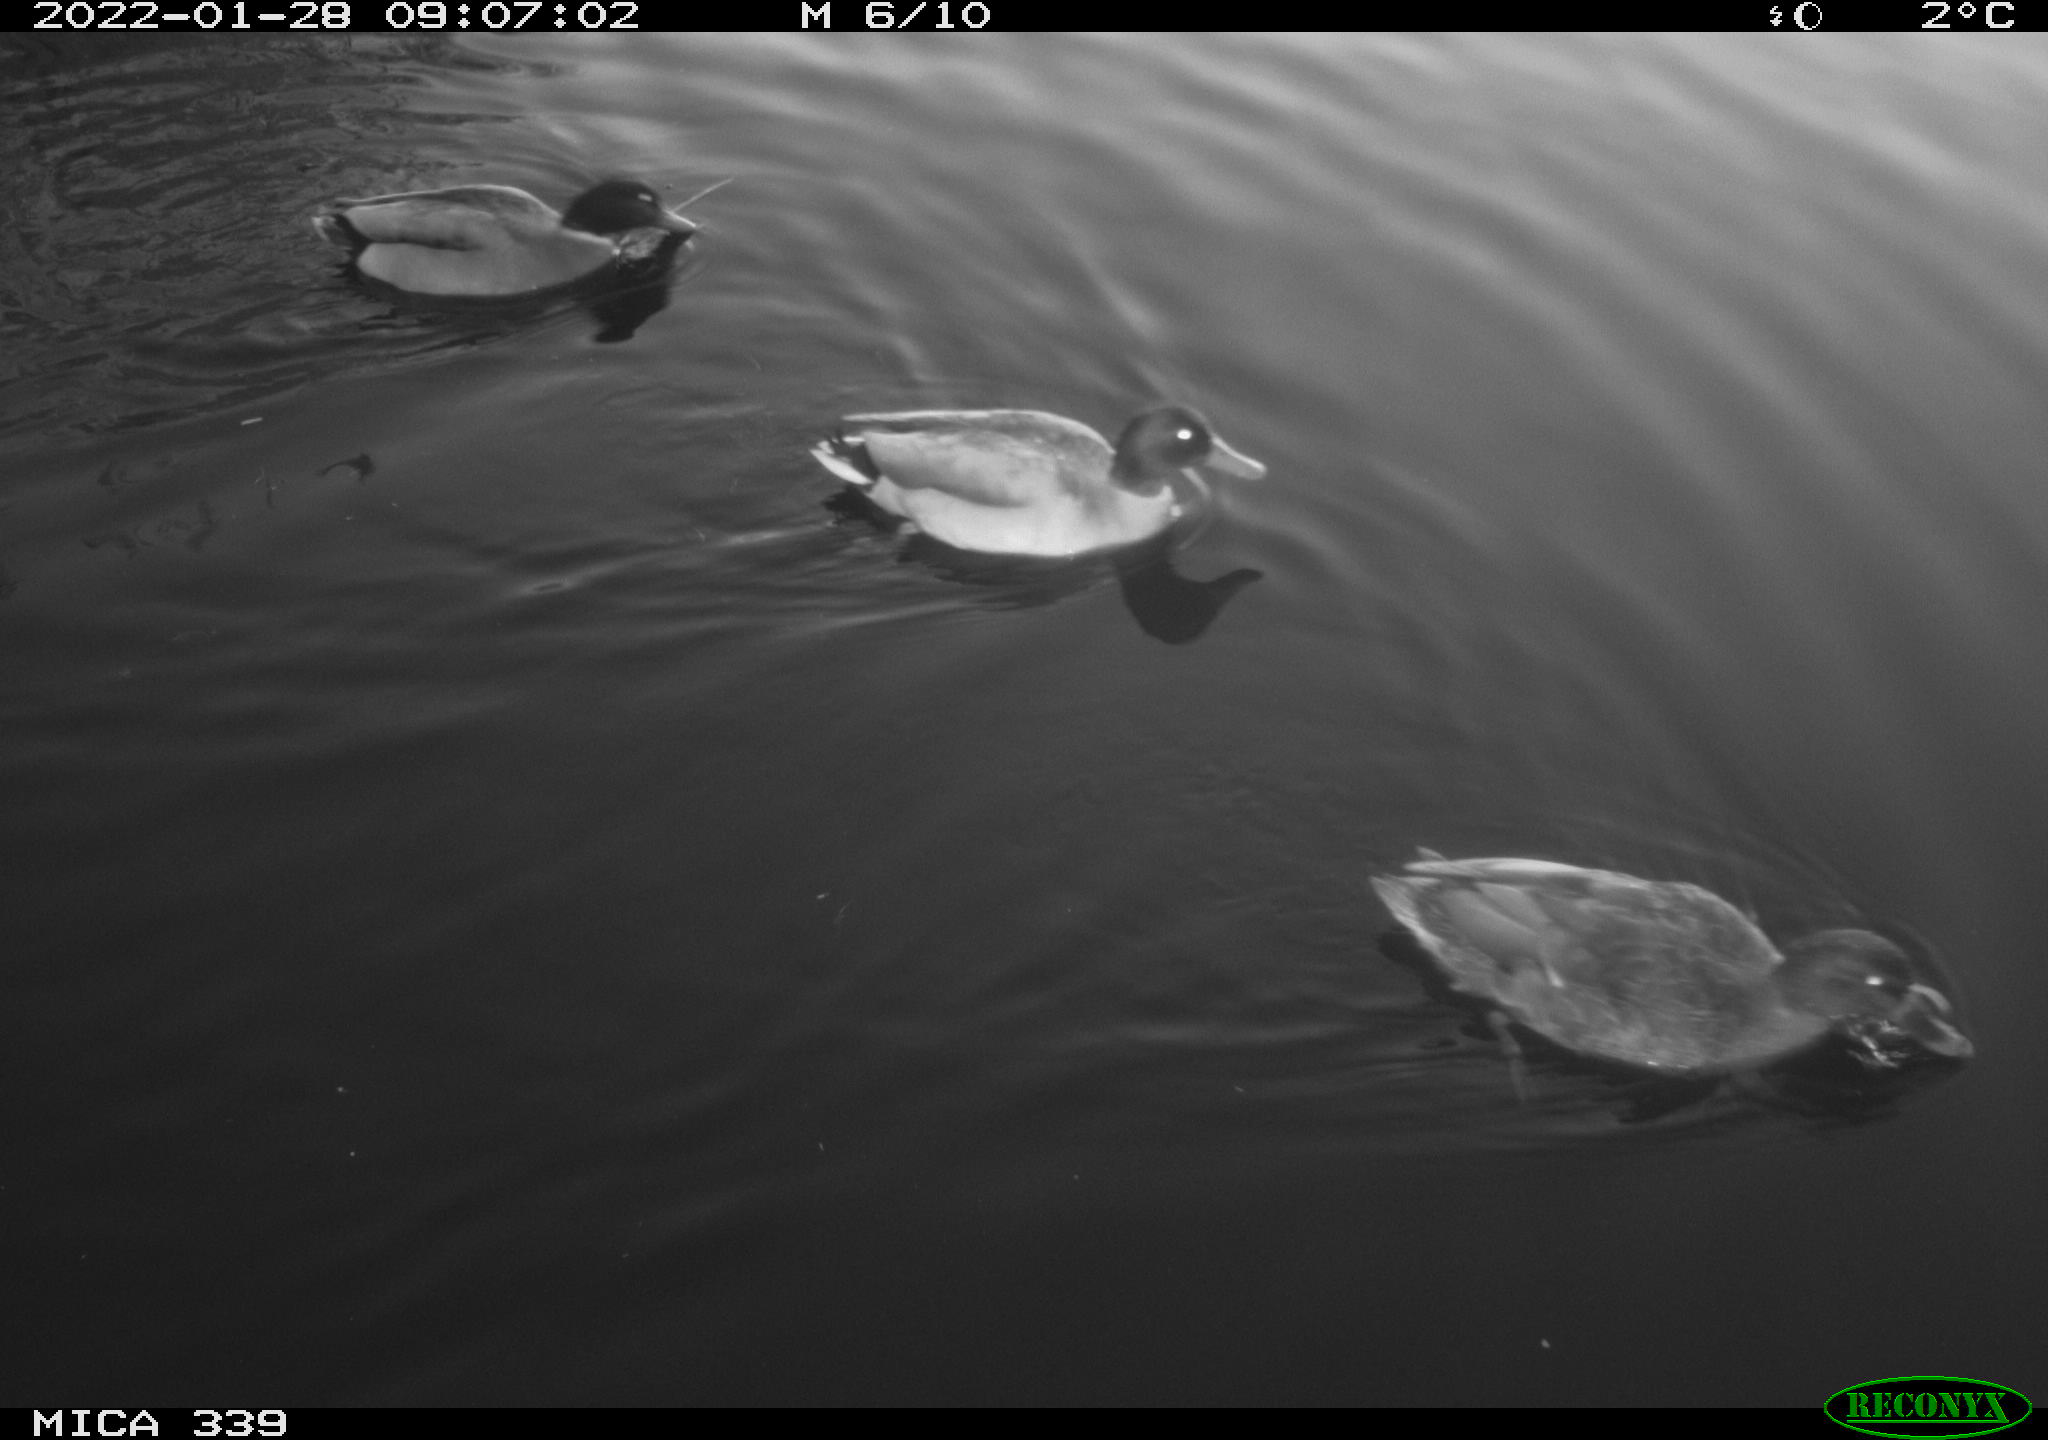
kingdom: Animalia
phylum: Chordata
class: Aves
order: Anseriformes
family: Anatidae
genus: Anas
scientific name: Anas platyrhynchos
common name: Mallard
